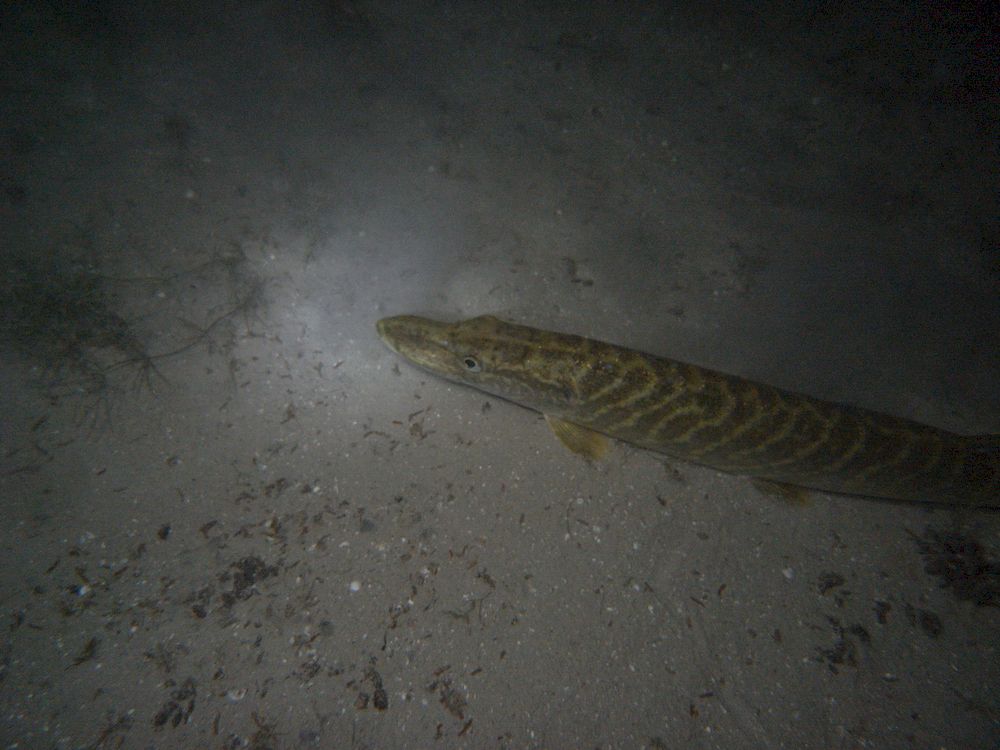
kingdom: Animalia
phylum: Chordata
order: Esociformes
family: Esocidae
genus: Esox
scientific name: Esox lucius
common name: Northern pike
